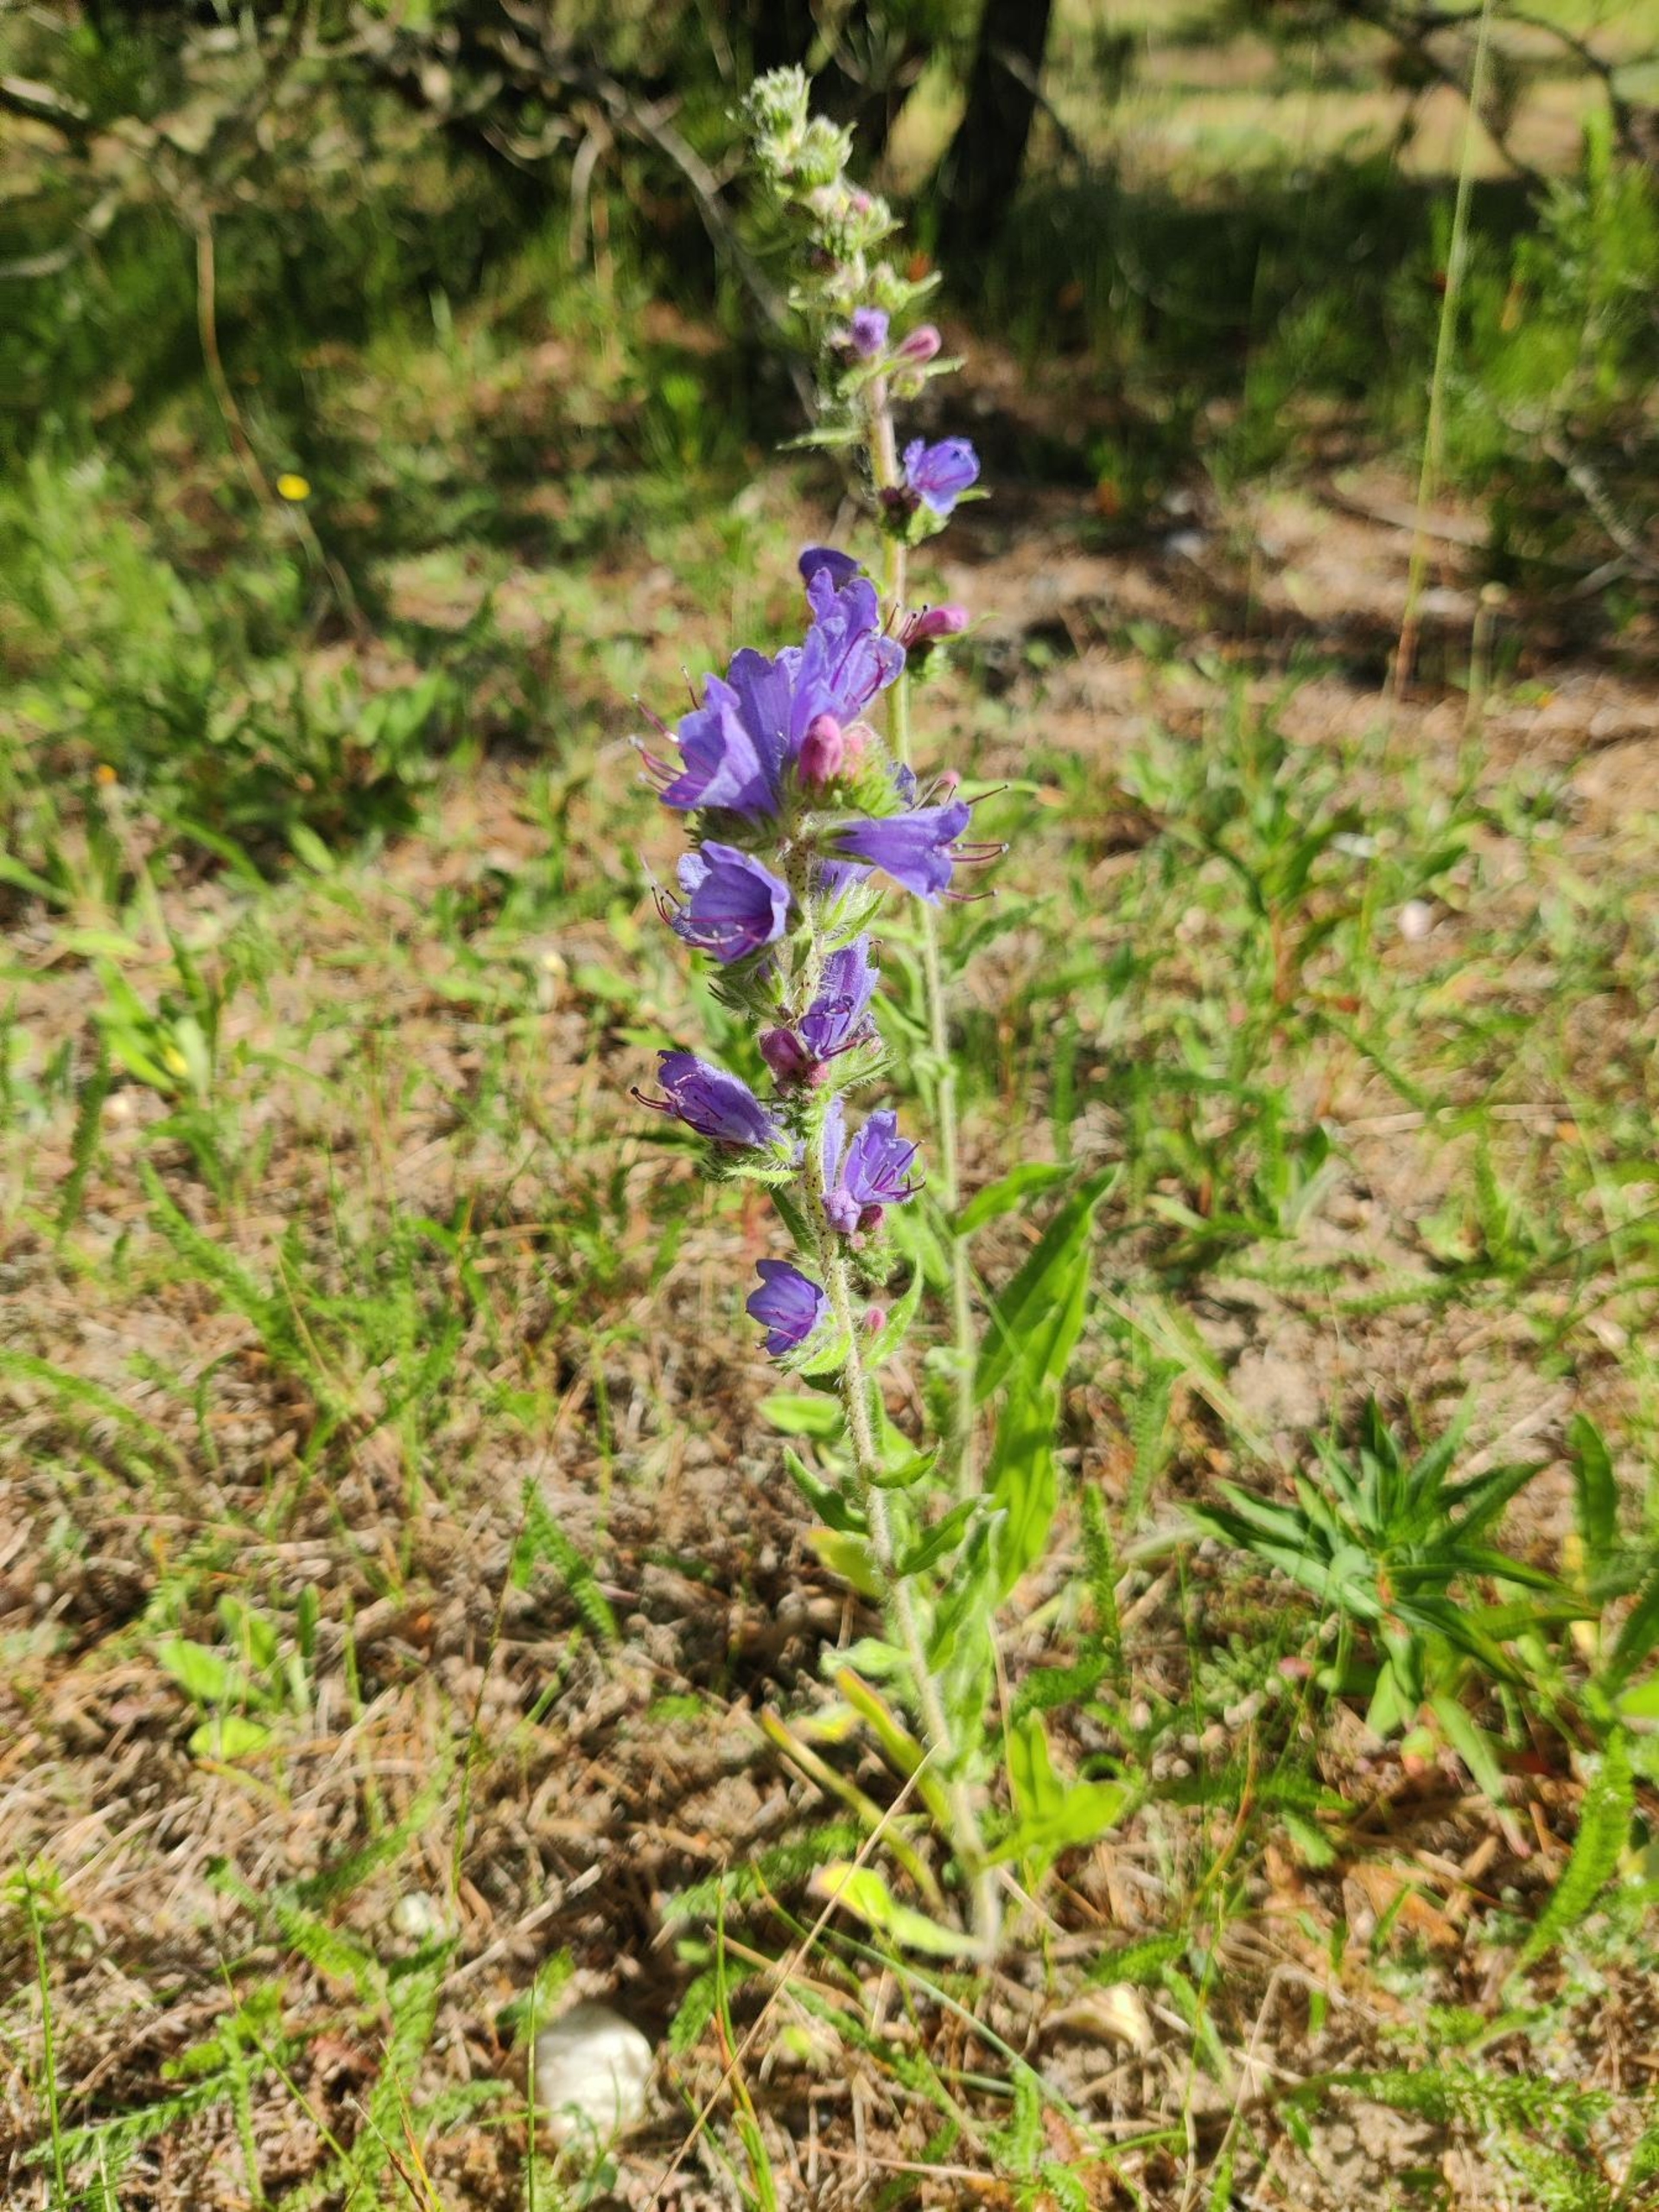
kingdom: Plantae
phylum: Tracheophyta
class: Magnoliopsida
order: Boraginales
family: Boraginaceae
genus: Echium
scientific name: Echium vulgare
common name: Slangehoved
